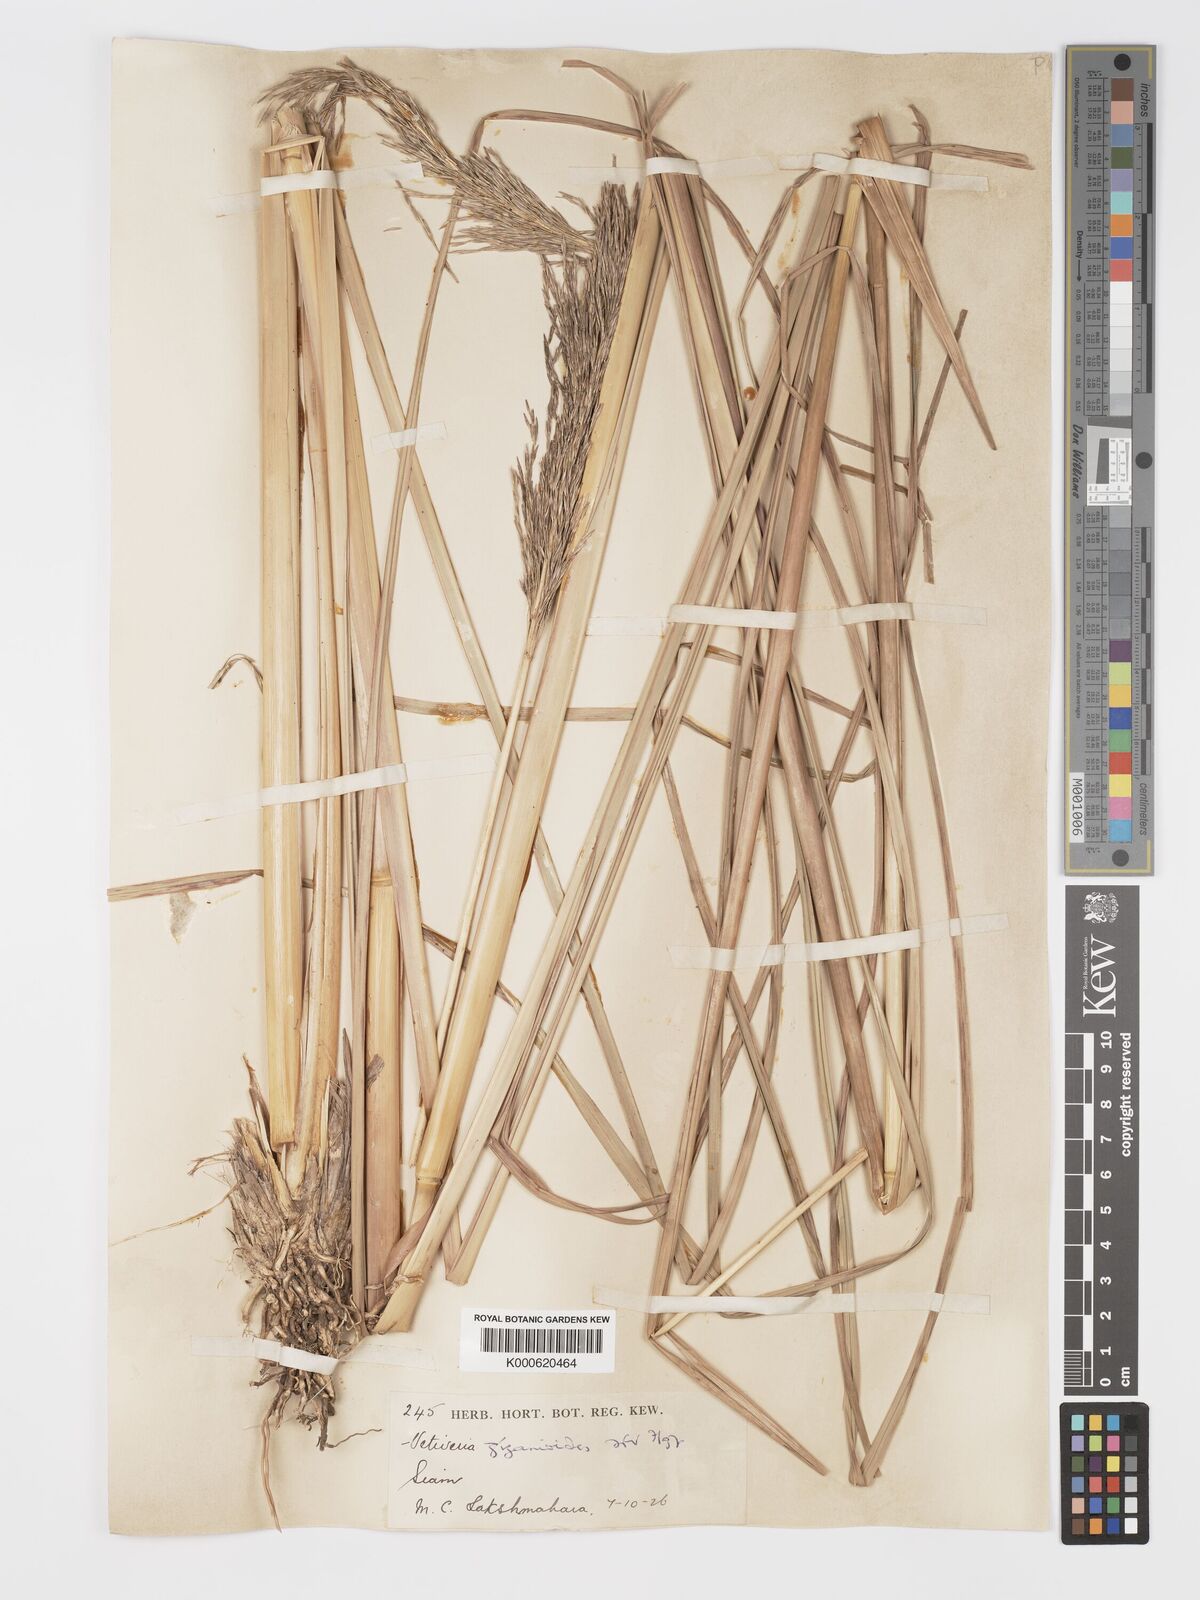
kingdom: Plantae
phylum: Tracheophyta
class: Liliopsida
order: Poales
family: Poaceae
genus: Chrysopogon
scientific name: Chrysopogon zizanioides
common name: False beardgrass
